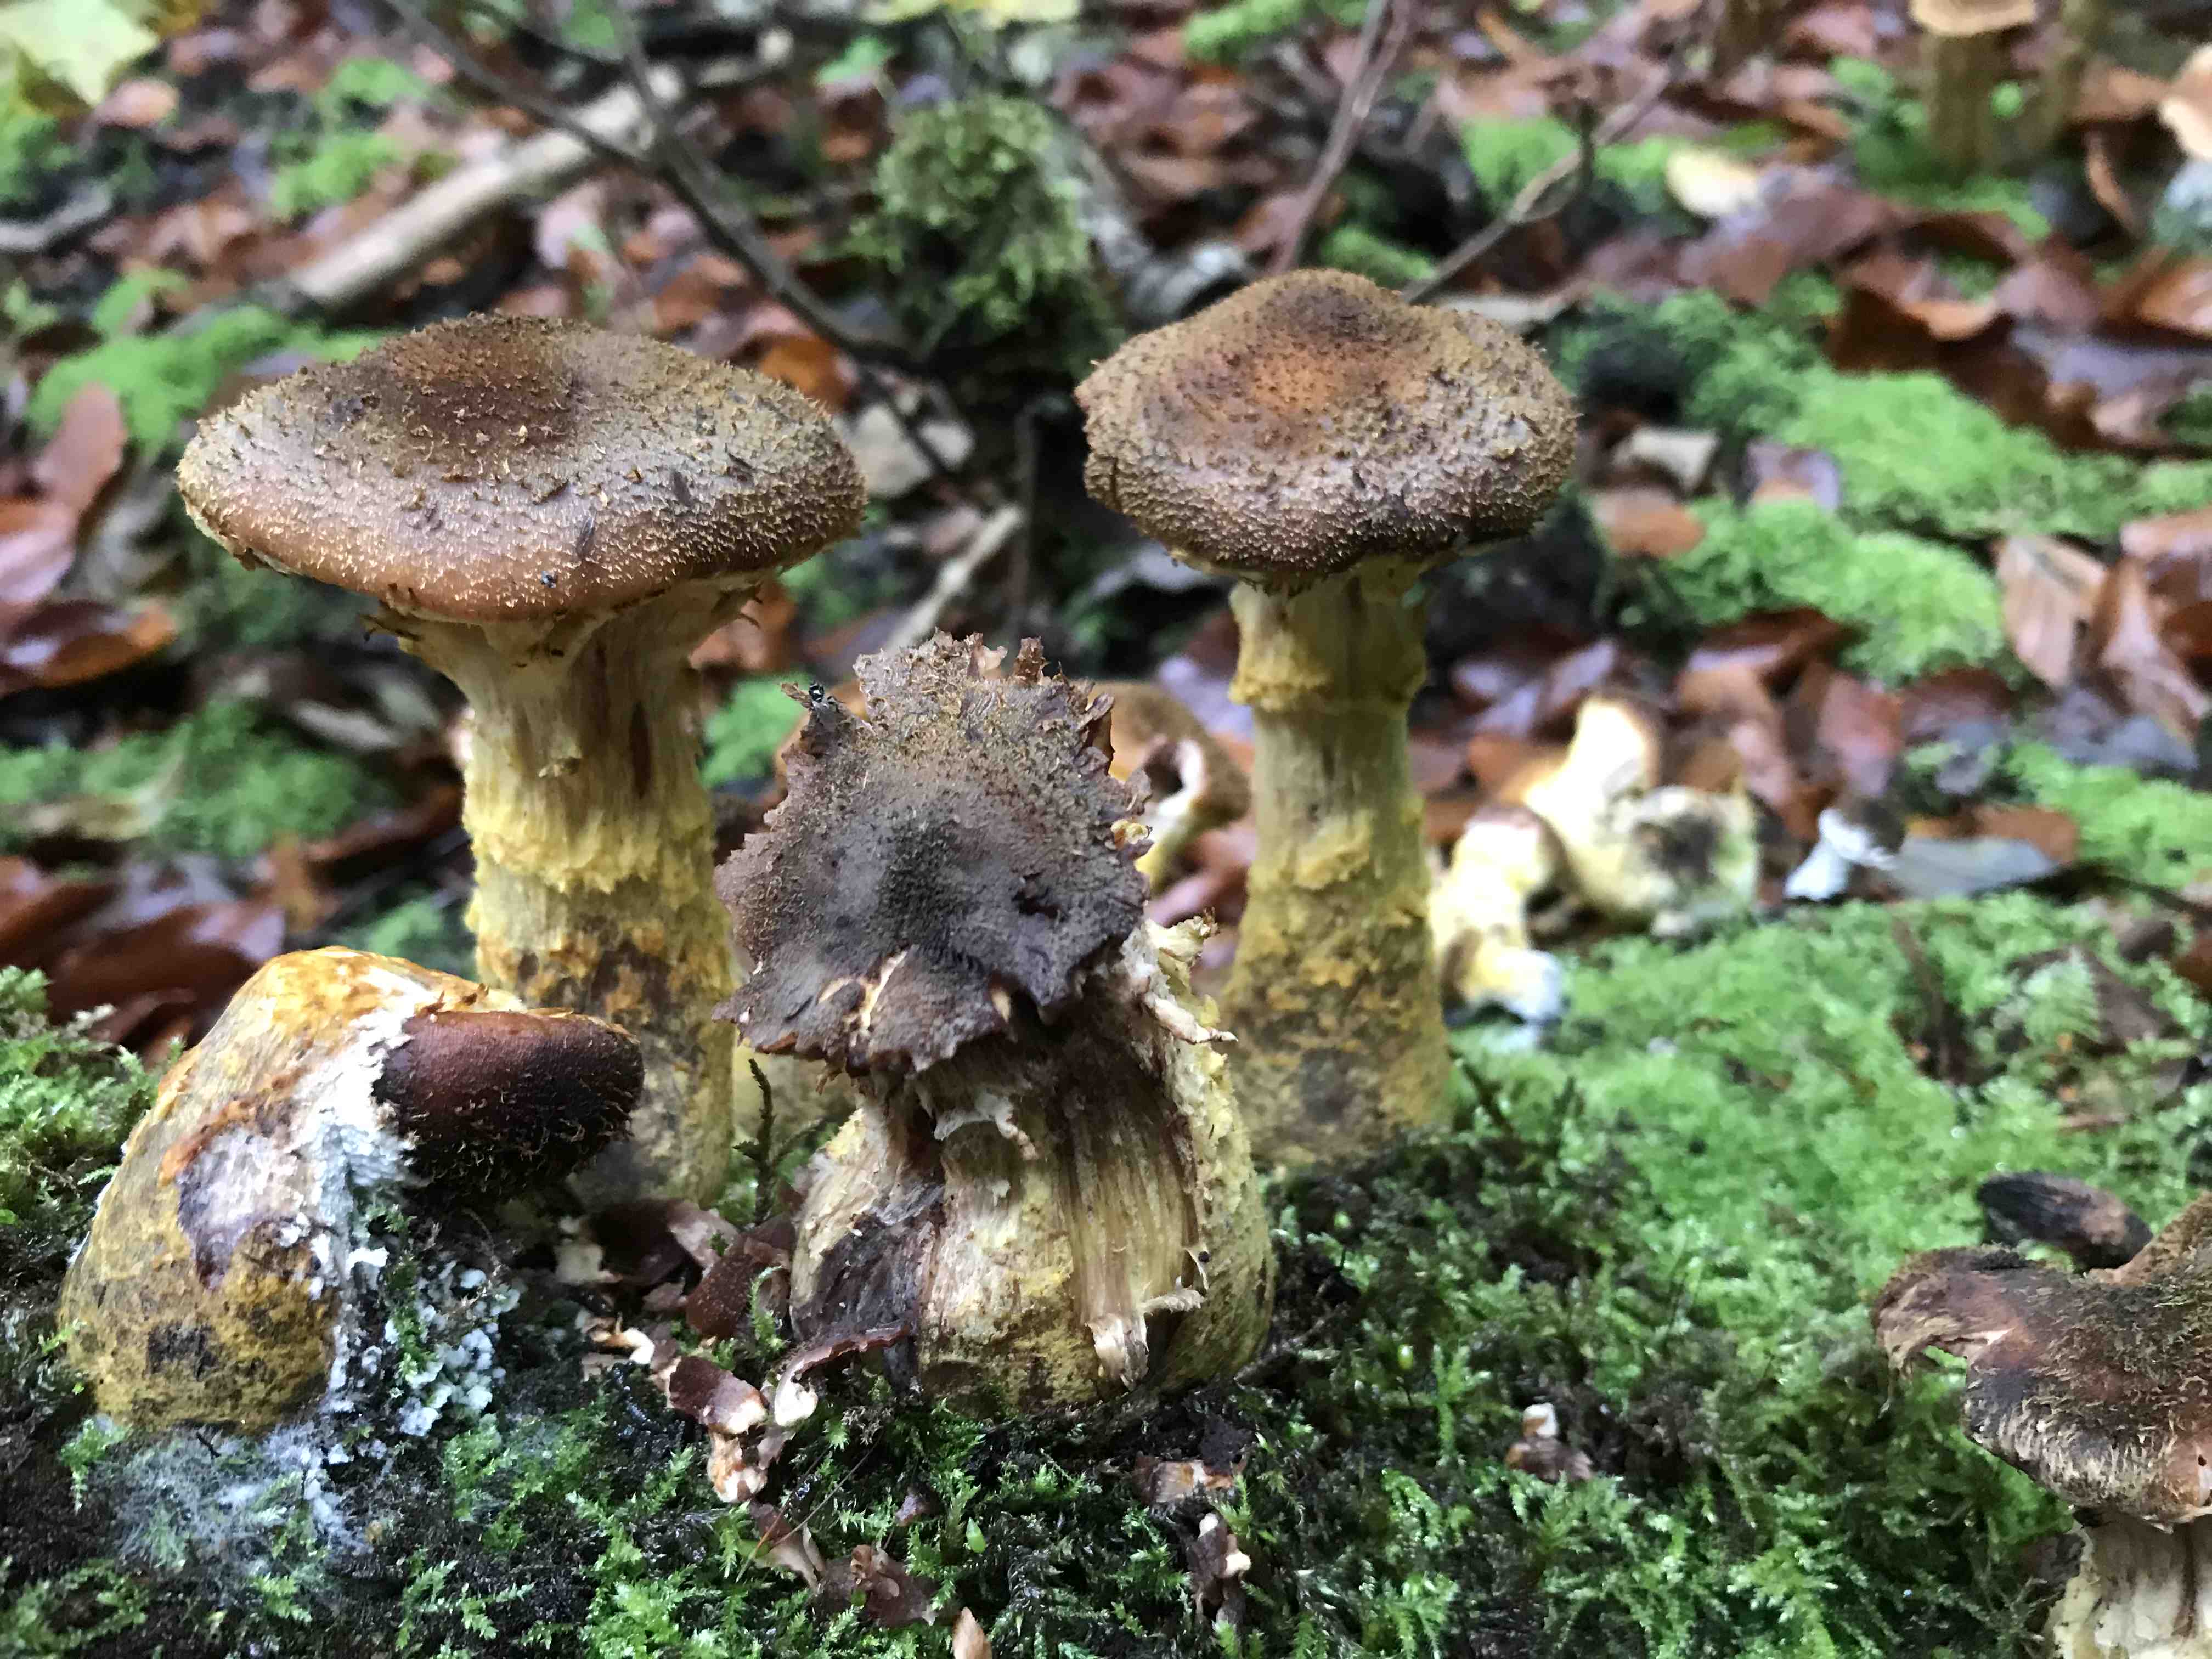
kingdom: Fungi
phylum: Basidiomycota
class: Agaricomycetes
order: Agaricales
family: Physalacriaceae
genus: Armillaria
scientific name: Armillaria lutea
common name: køllestokket honningsvamp
